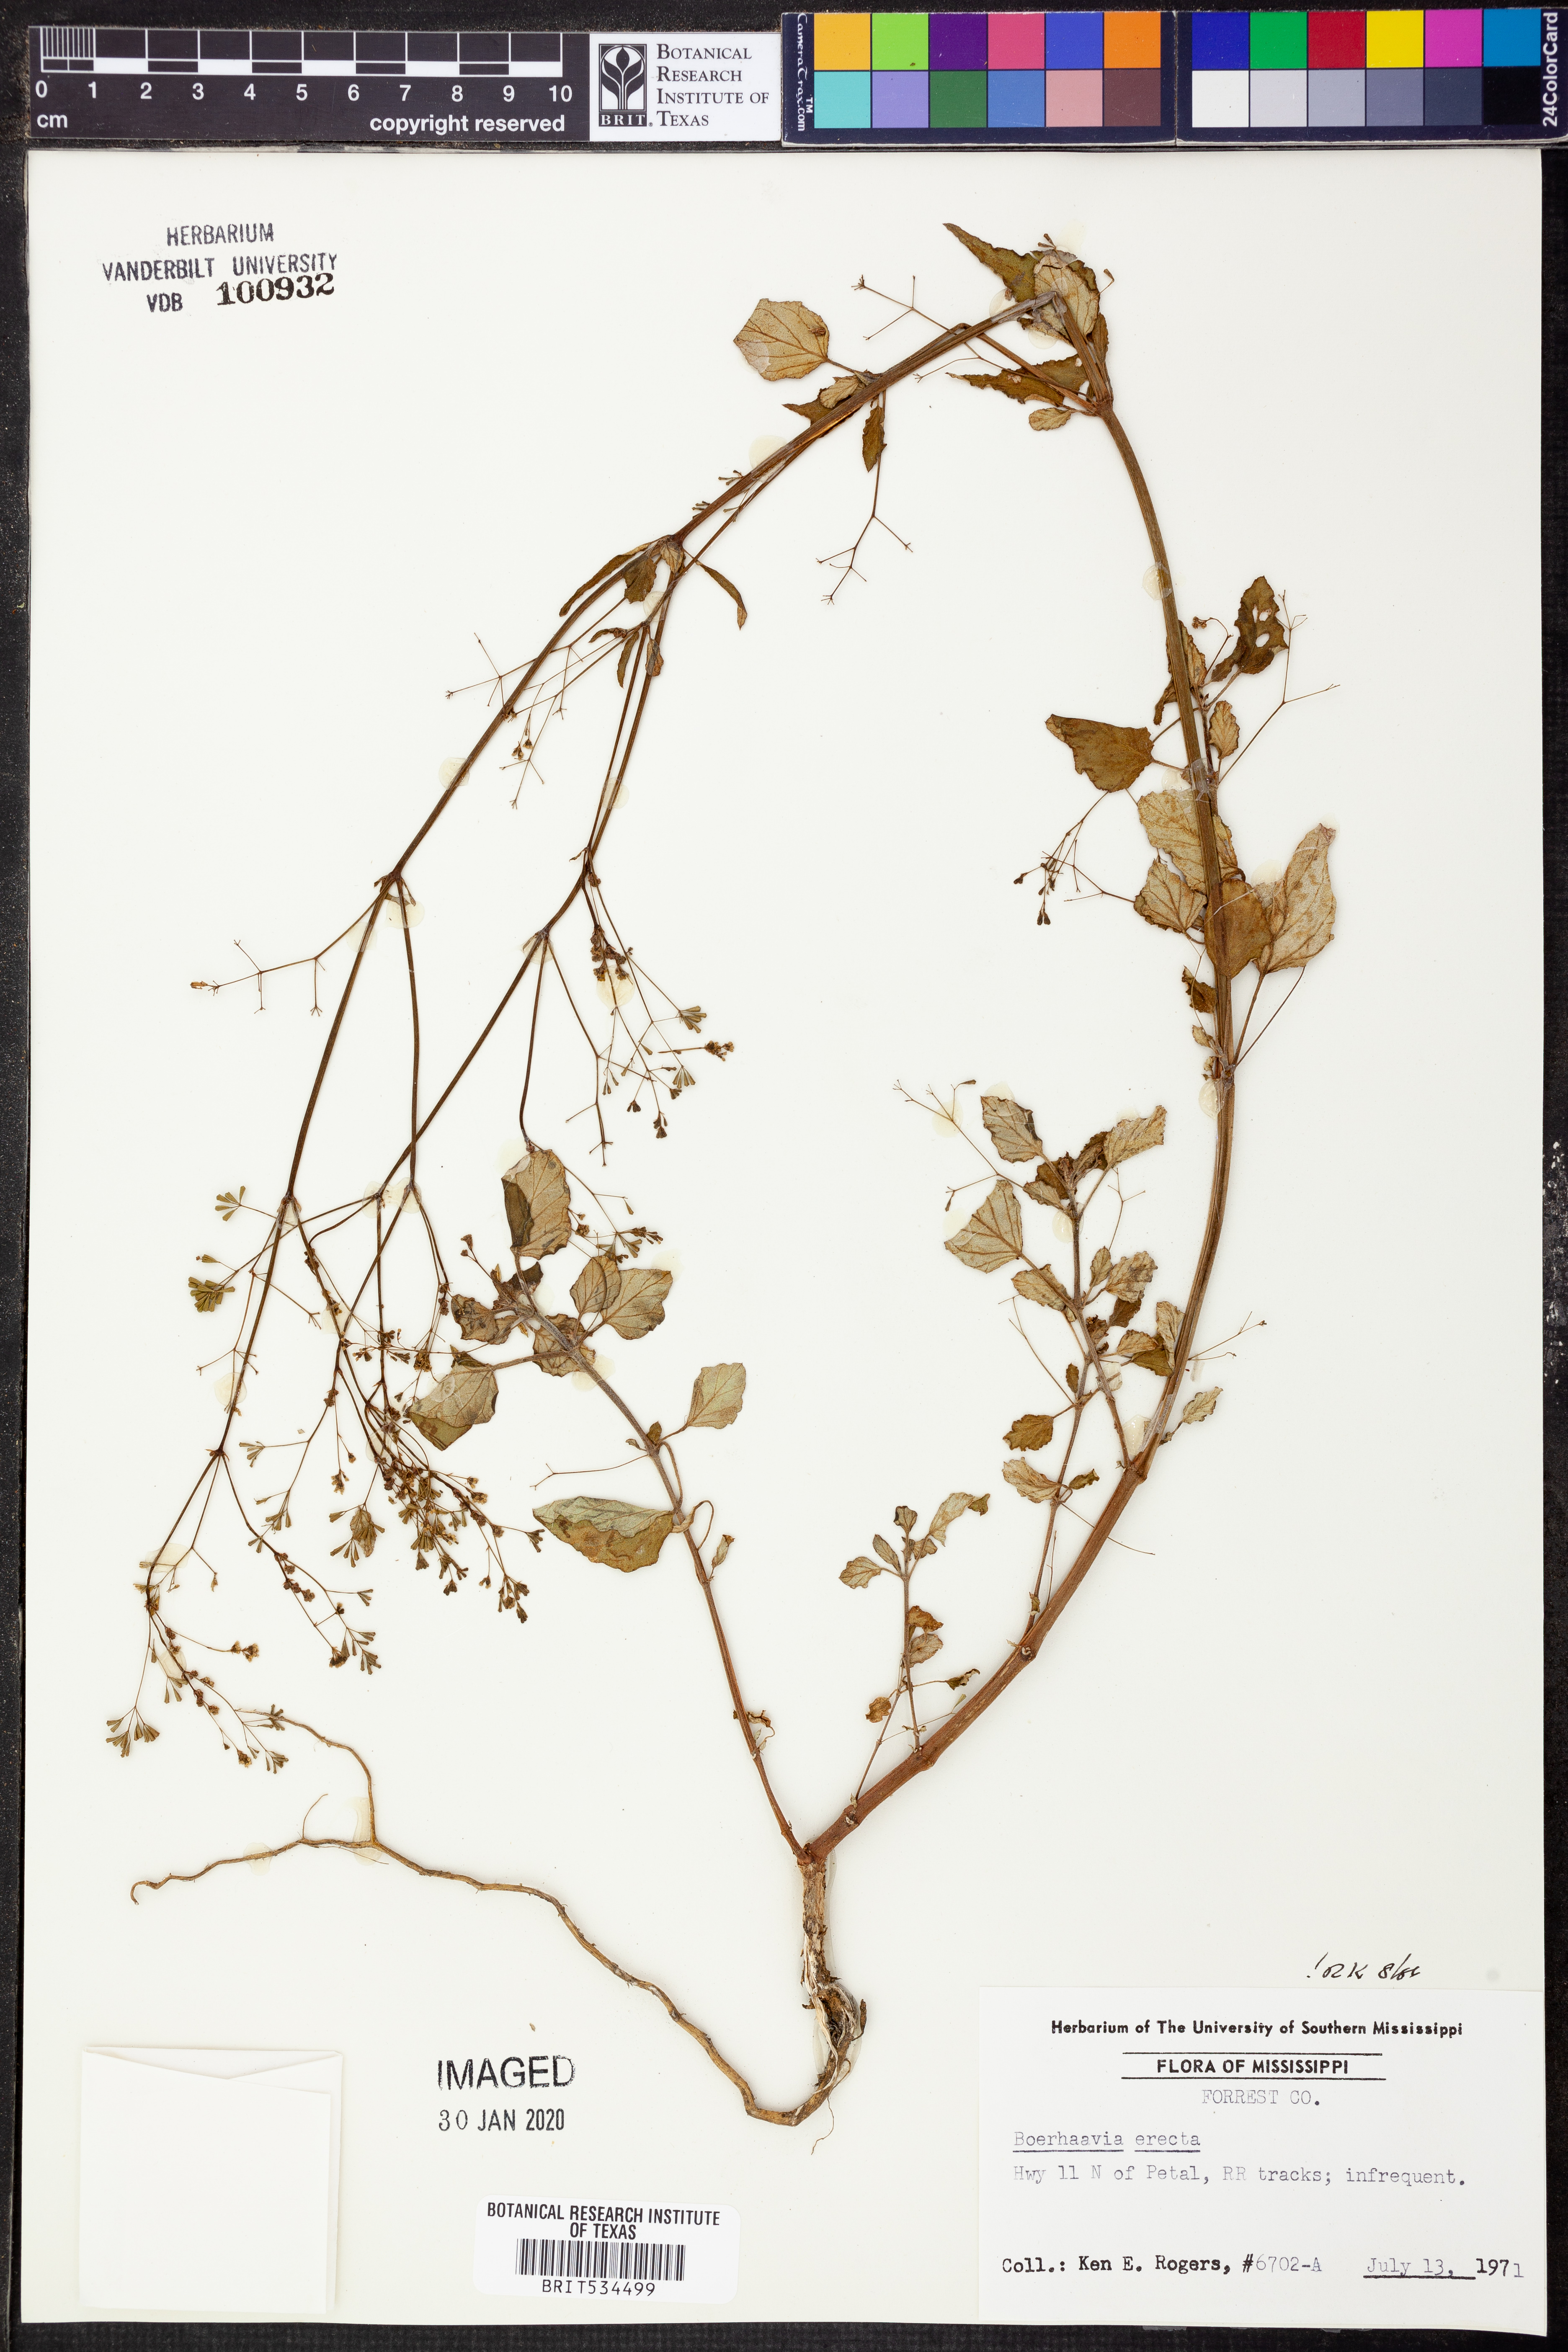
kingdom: Plantae
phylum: Tracheophyta
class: Magnoliopsida
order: Caryophyllales
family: Nyctaginaceae
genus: Boerhavia
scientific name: Boerhavia erecta
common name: Erect spiderling
